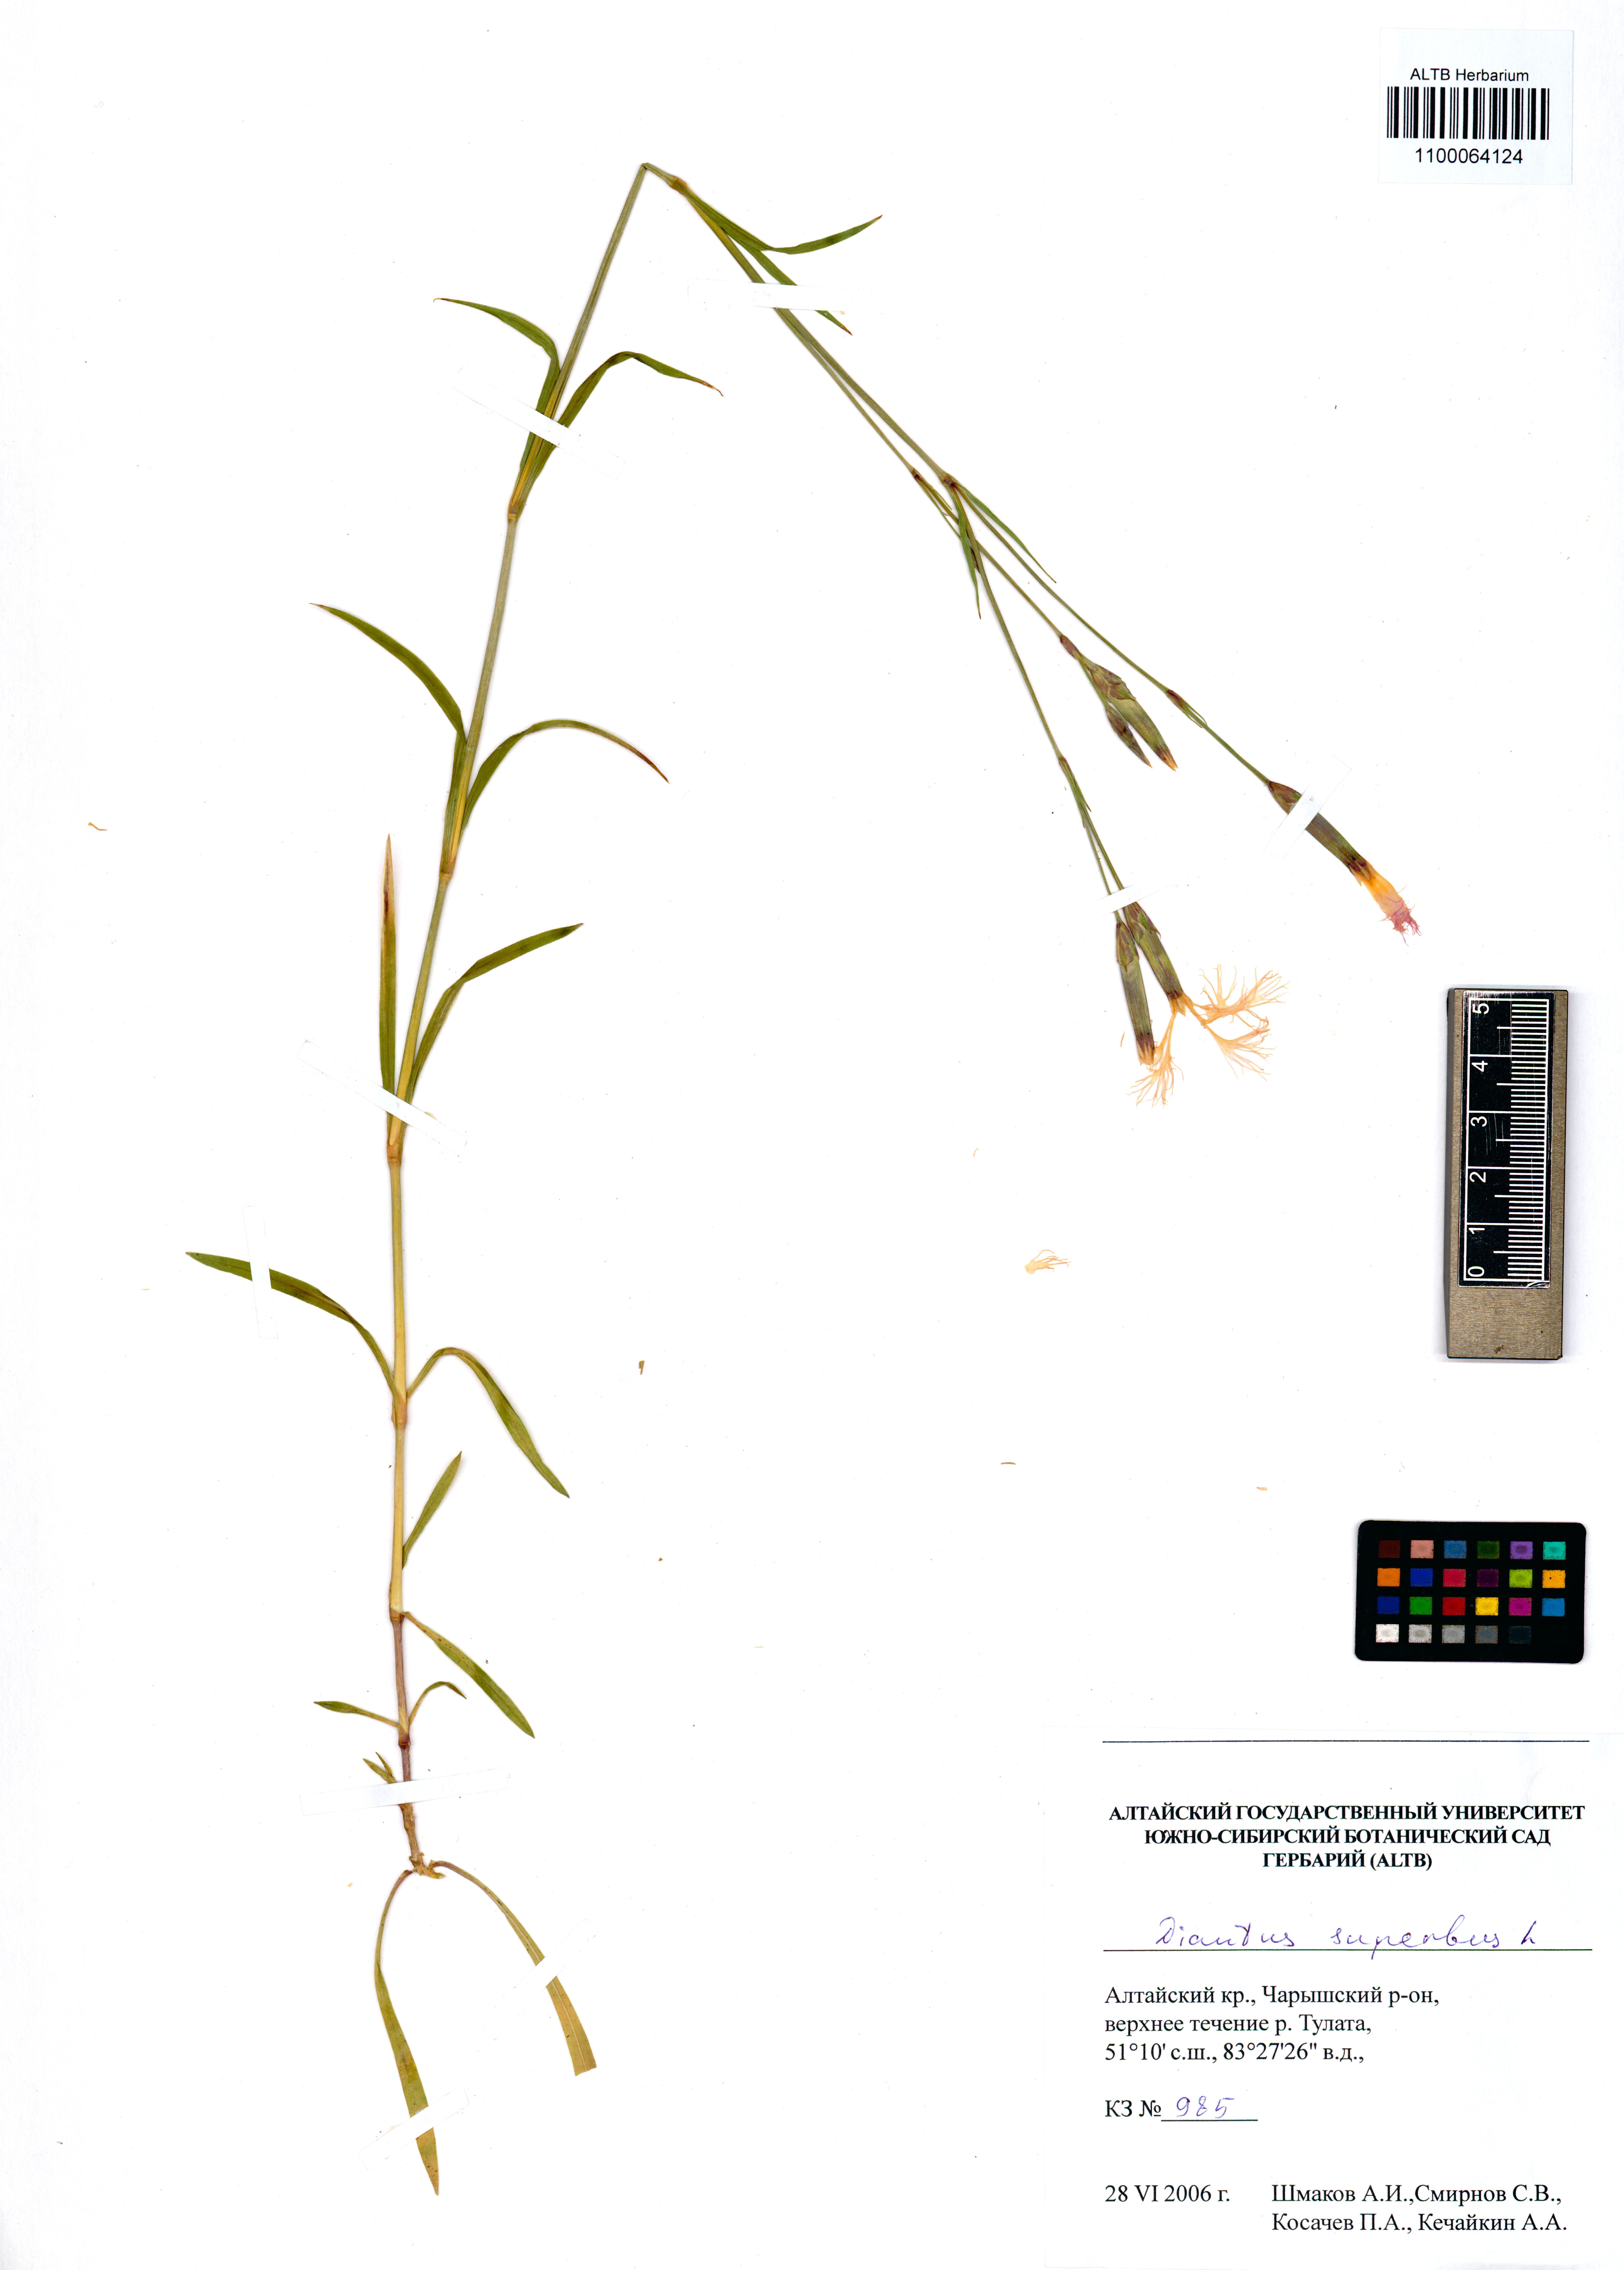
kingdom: Plantae
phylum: Tracheophyta
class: Magnoliopsida
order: Caryophyllales
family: Caryophyllaceae
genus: Dianthus
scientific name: Dianthus superbus
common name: Fringed pink
